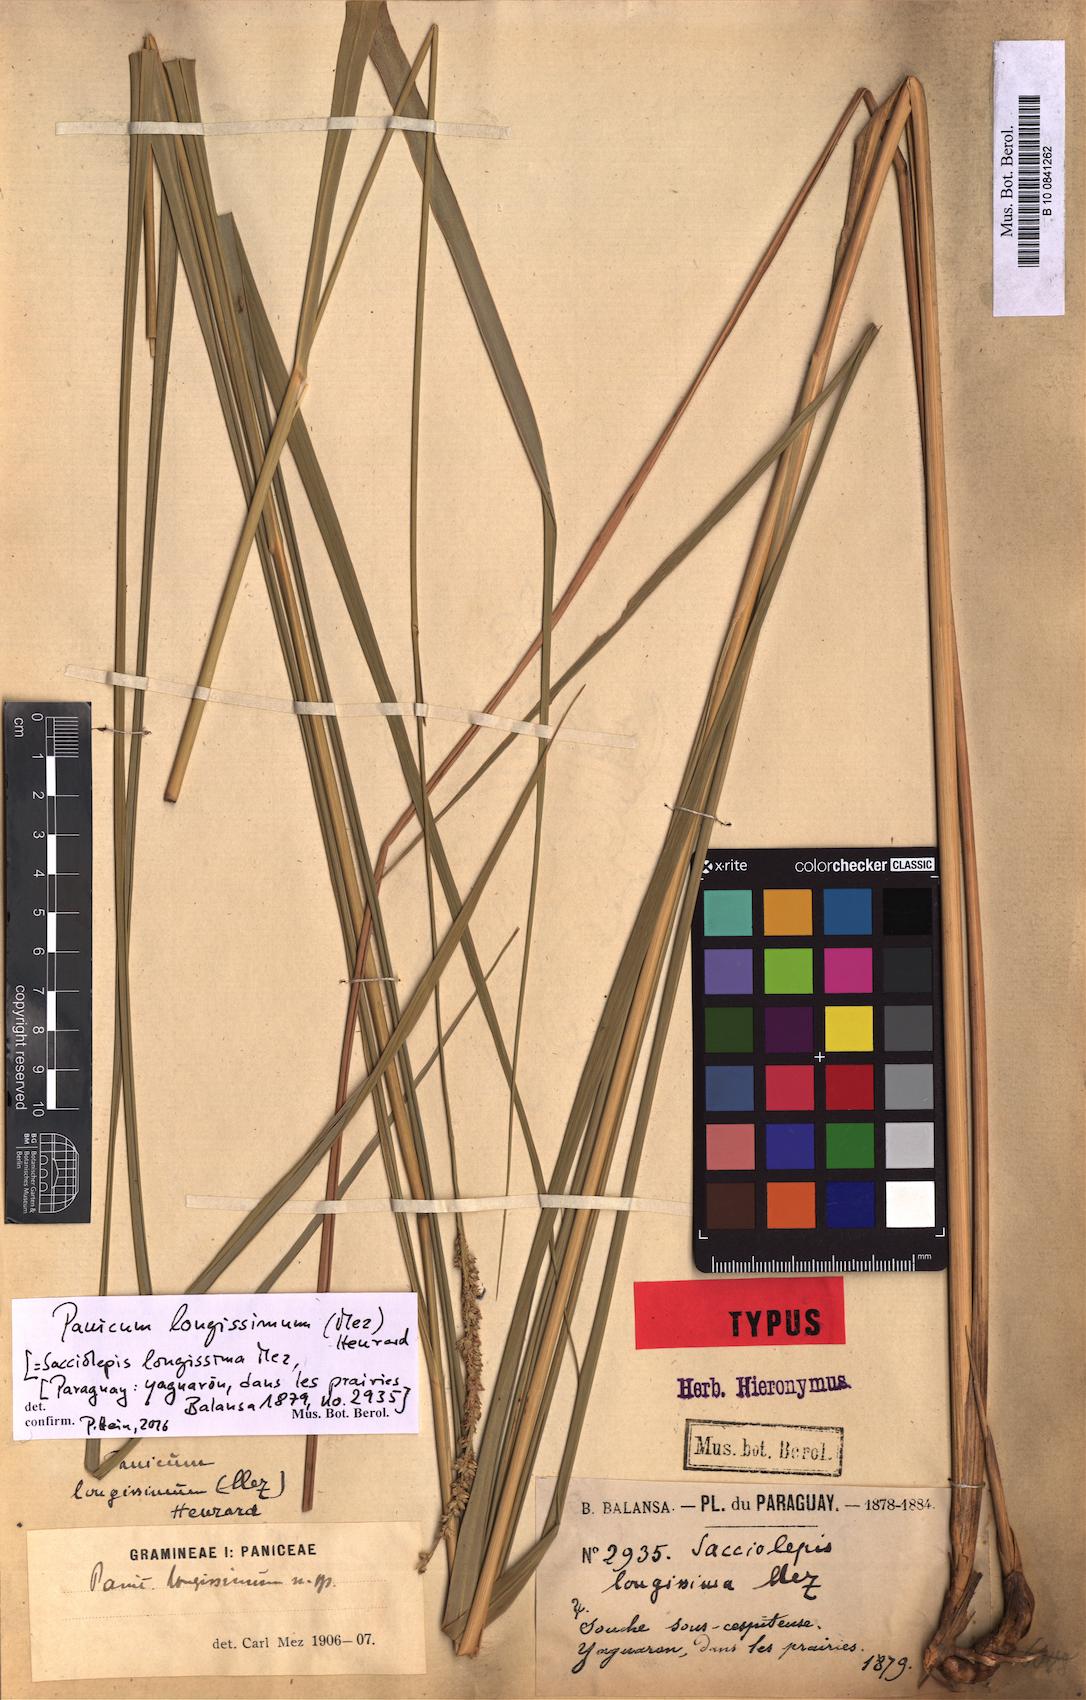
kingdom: Plantae
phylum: Tracheophyta
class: Liliopsida
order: Poales
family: Poaceae
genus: Panicum
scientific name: Panicum longissimum
